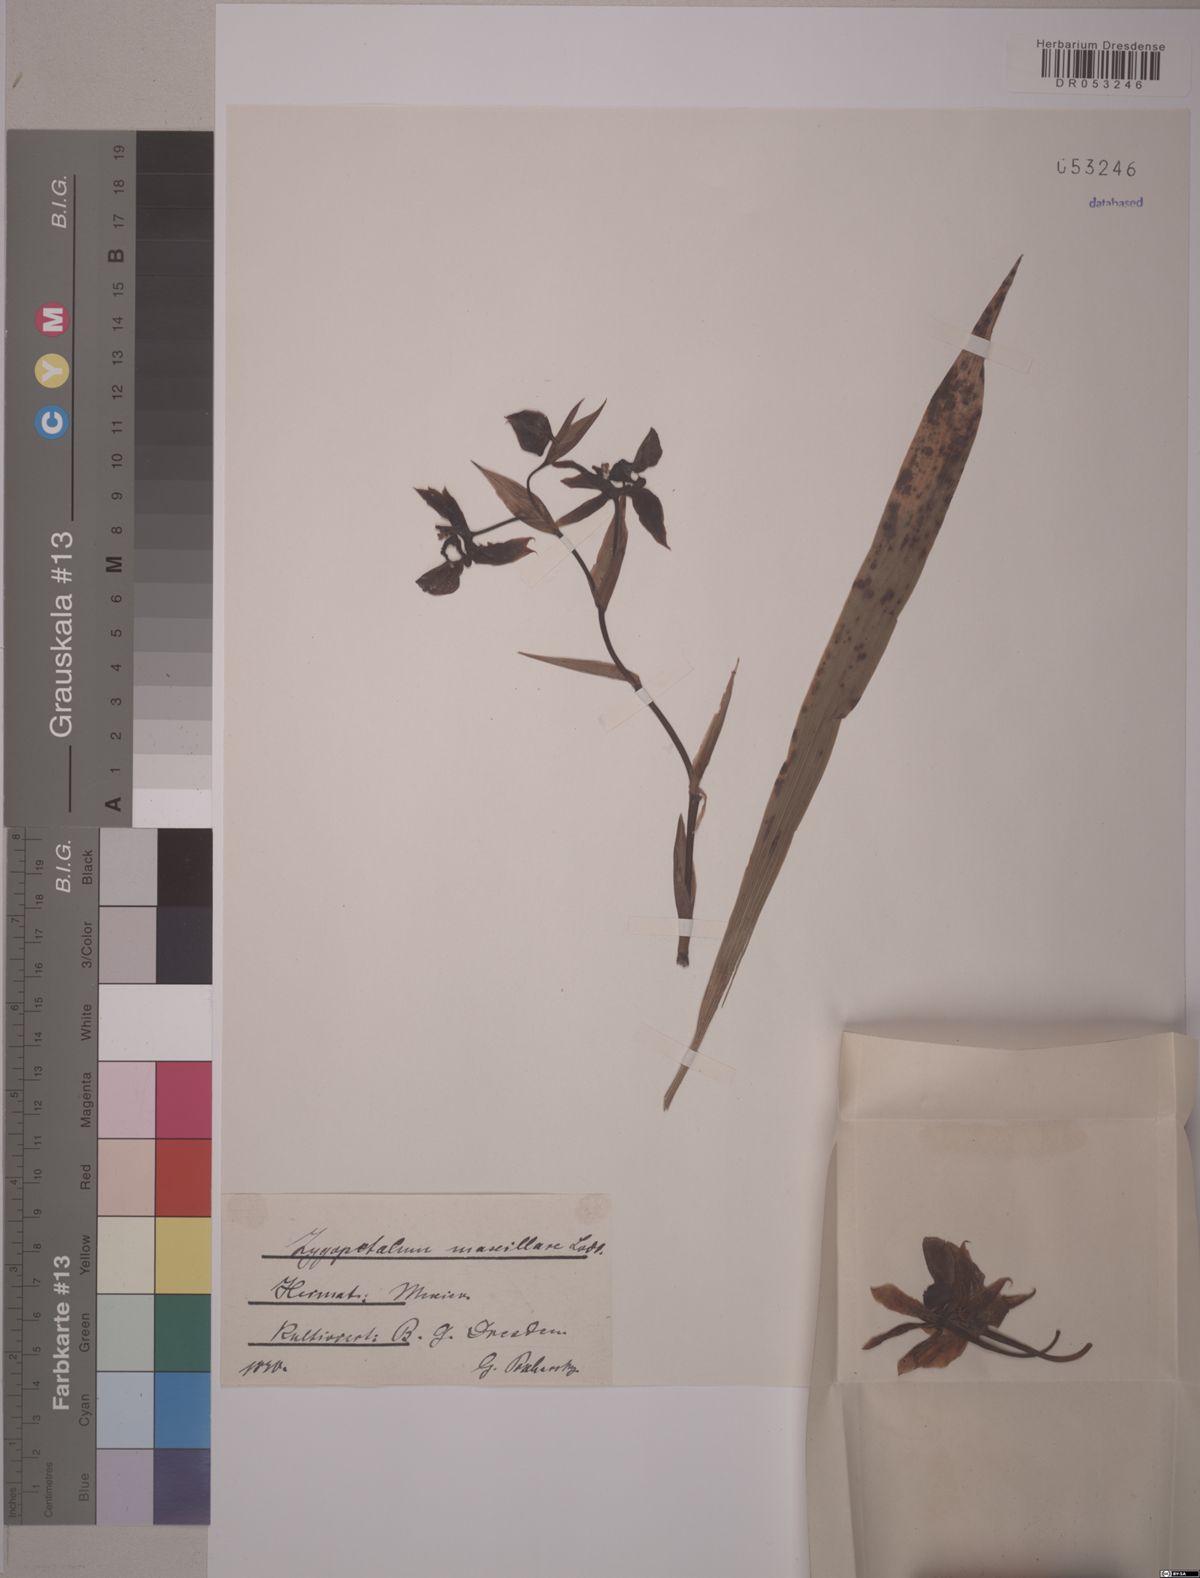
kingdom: Plantae
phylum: Tracheophyta
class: Liliopsida
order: Asparagales
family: Orchidaceae
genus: Zygopetalum
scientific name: Zygopetalum maxillare
